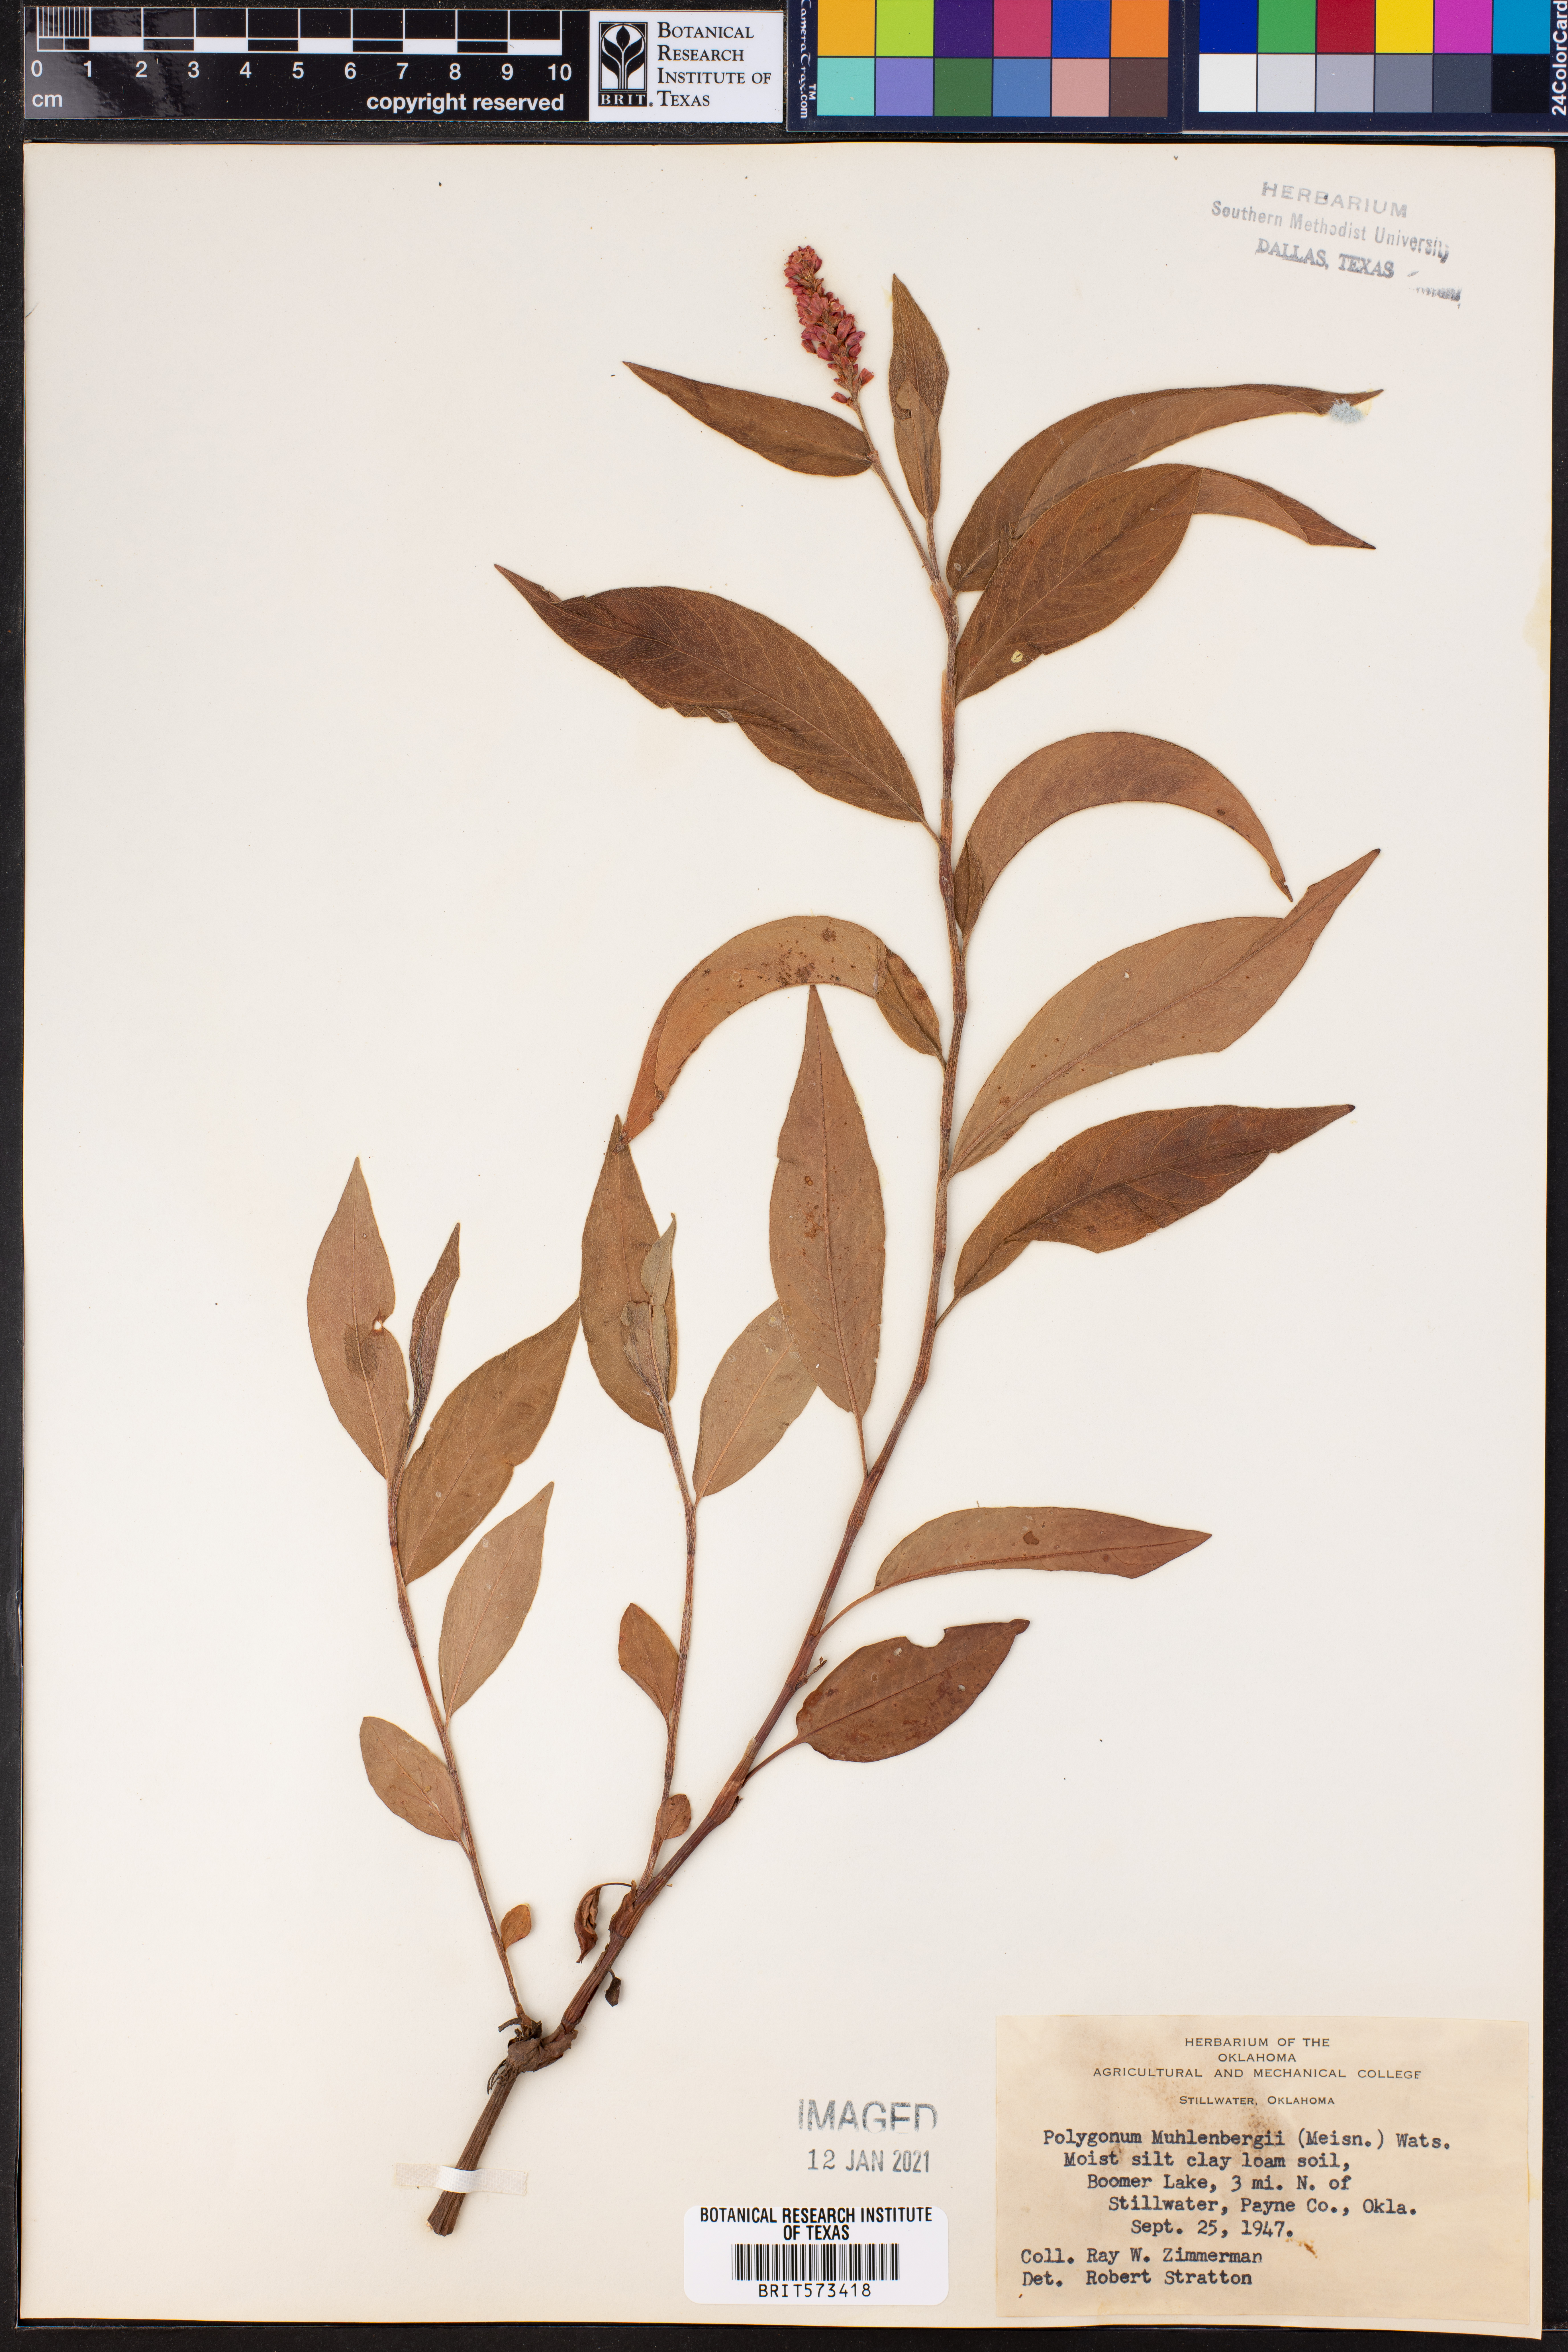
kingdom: Plantae
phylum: Tracheophyta
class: Magnoliopsida
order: Caryophyllales
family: Polygonaceae
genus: Persicaria
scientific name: Persicaria amphibia
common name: Amphibious bistort
